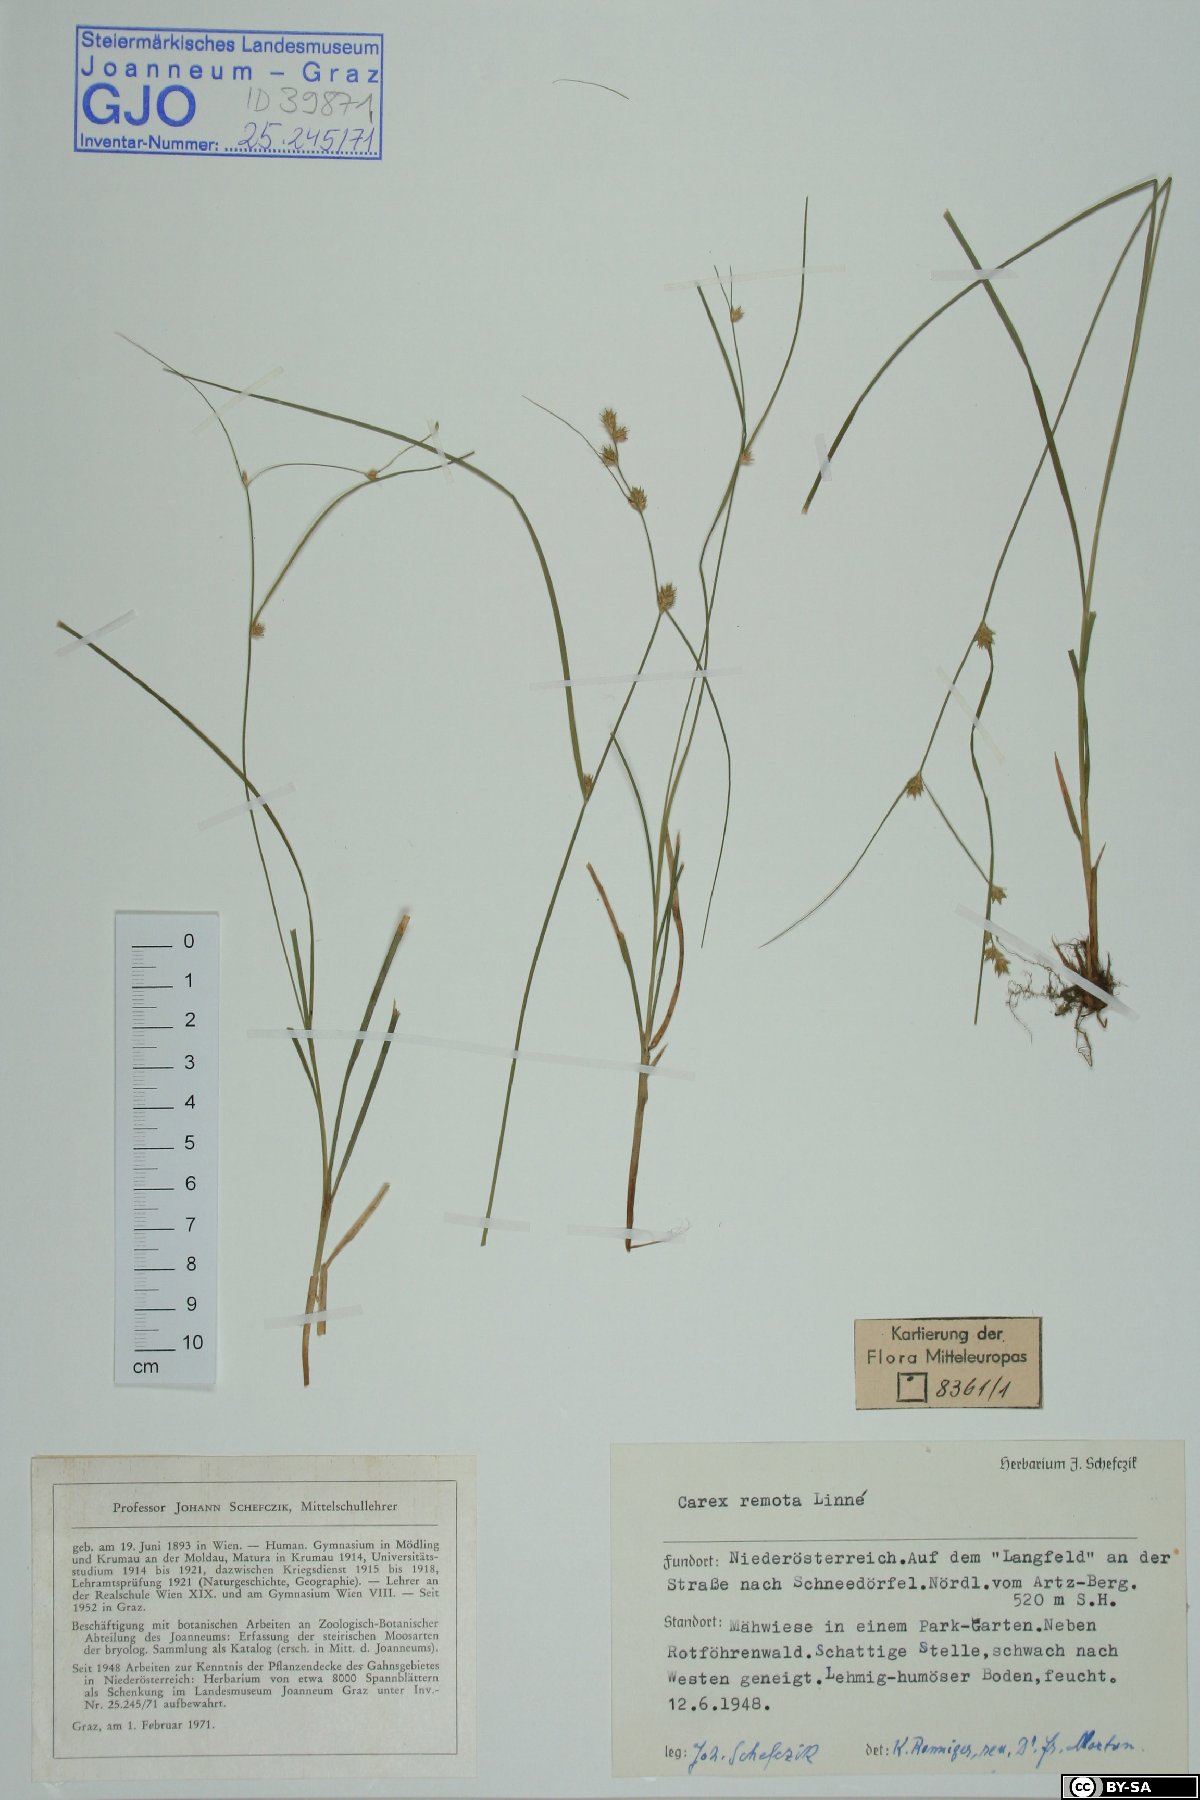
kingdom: Plantae
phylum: Tracheophyta
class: Liliopsida
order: Poales
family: Cyperaceae
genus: Carex
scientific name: Carex remota
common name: Remote sedge
